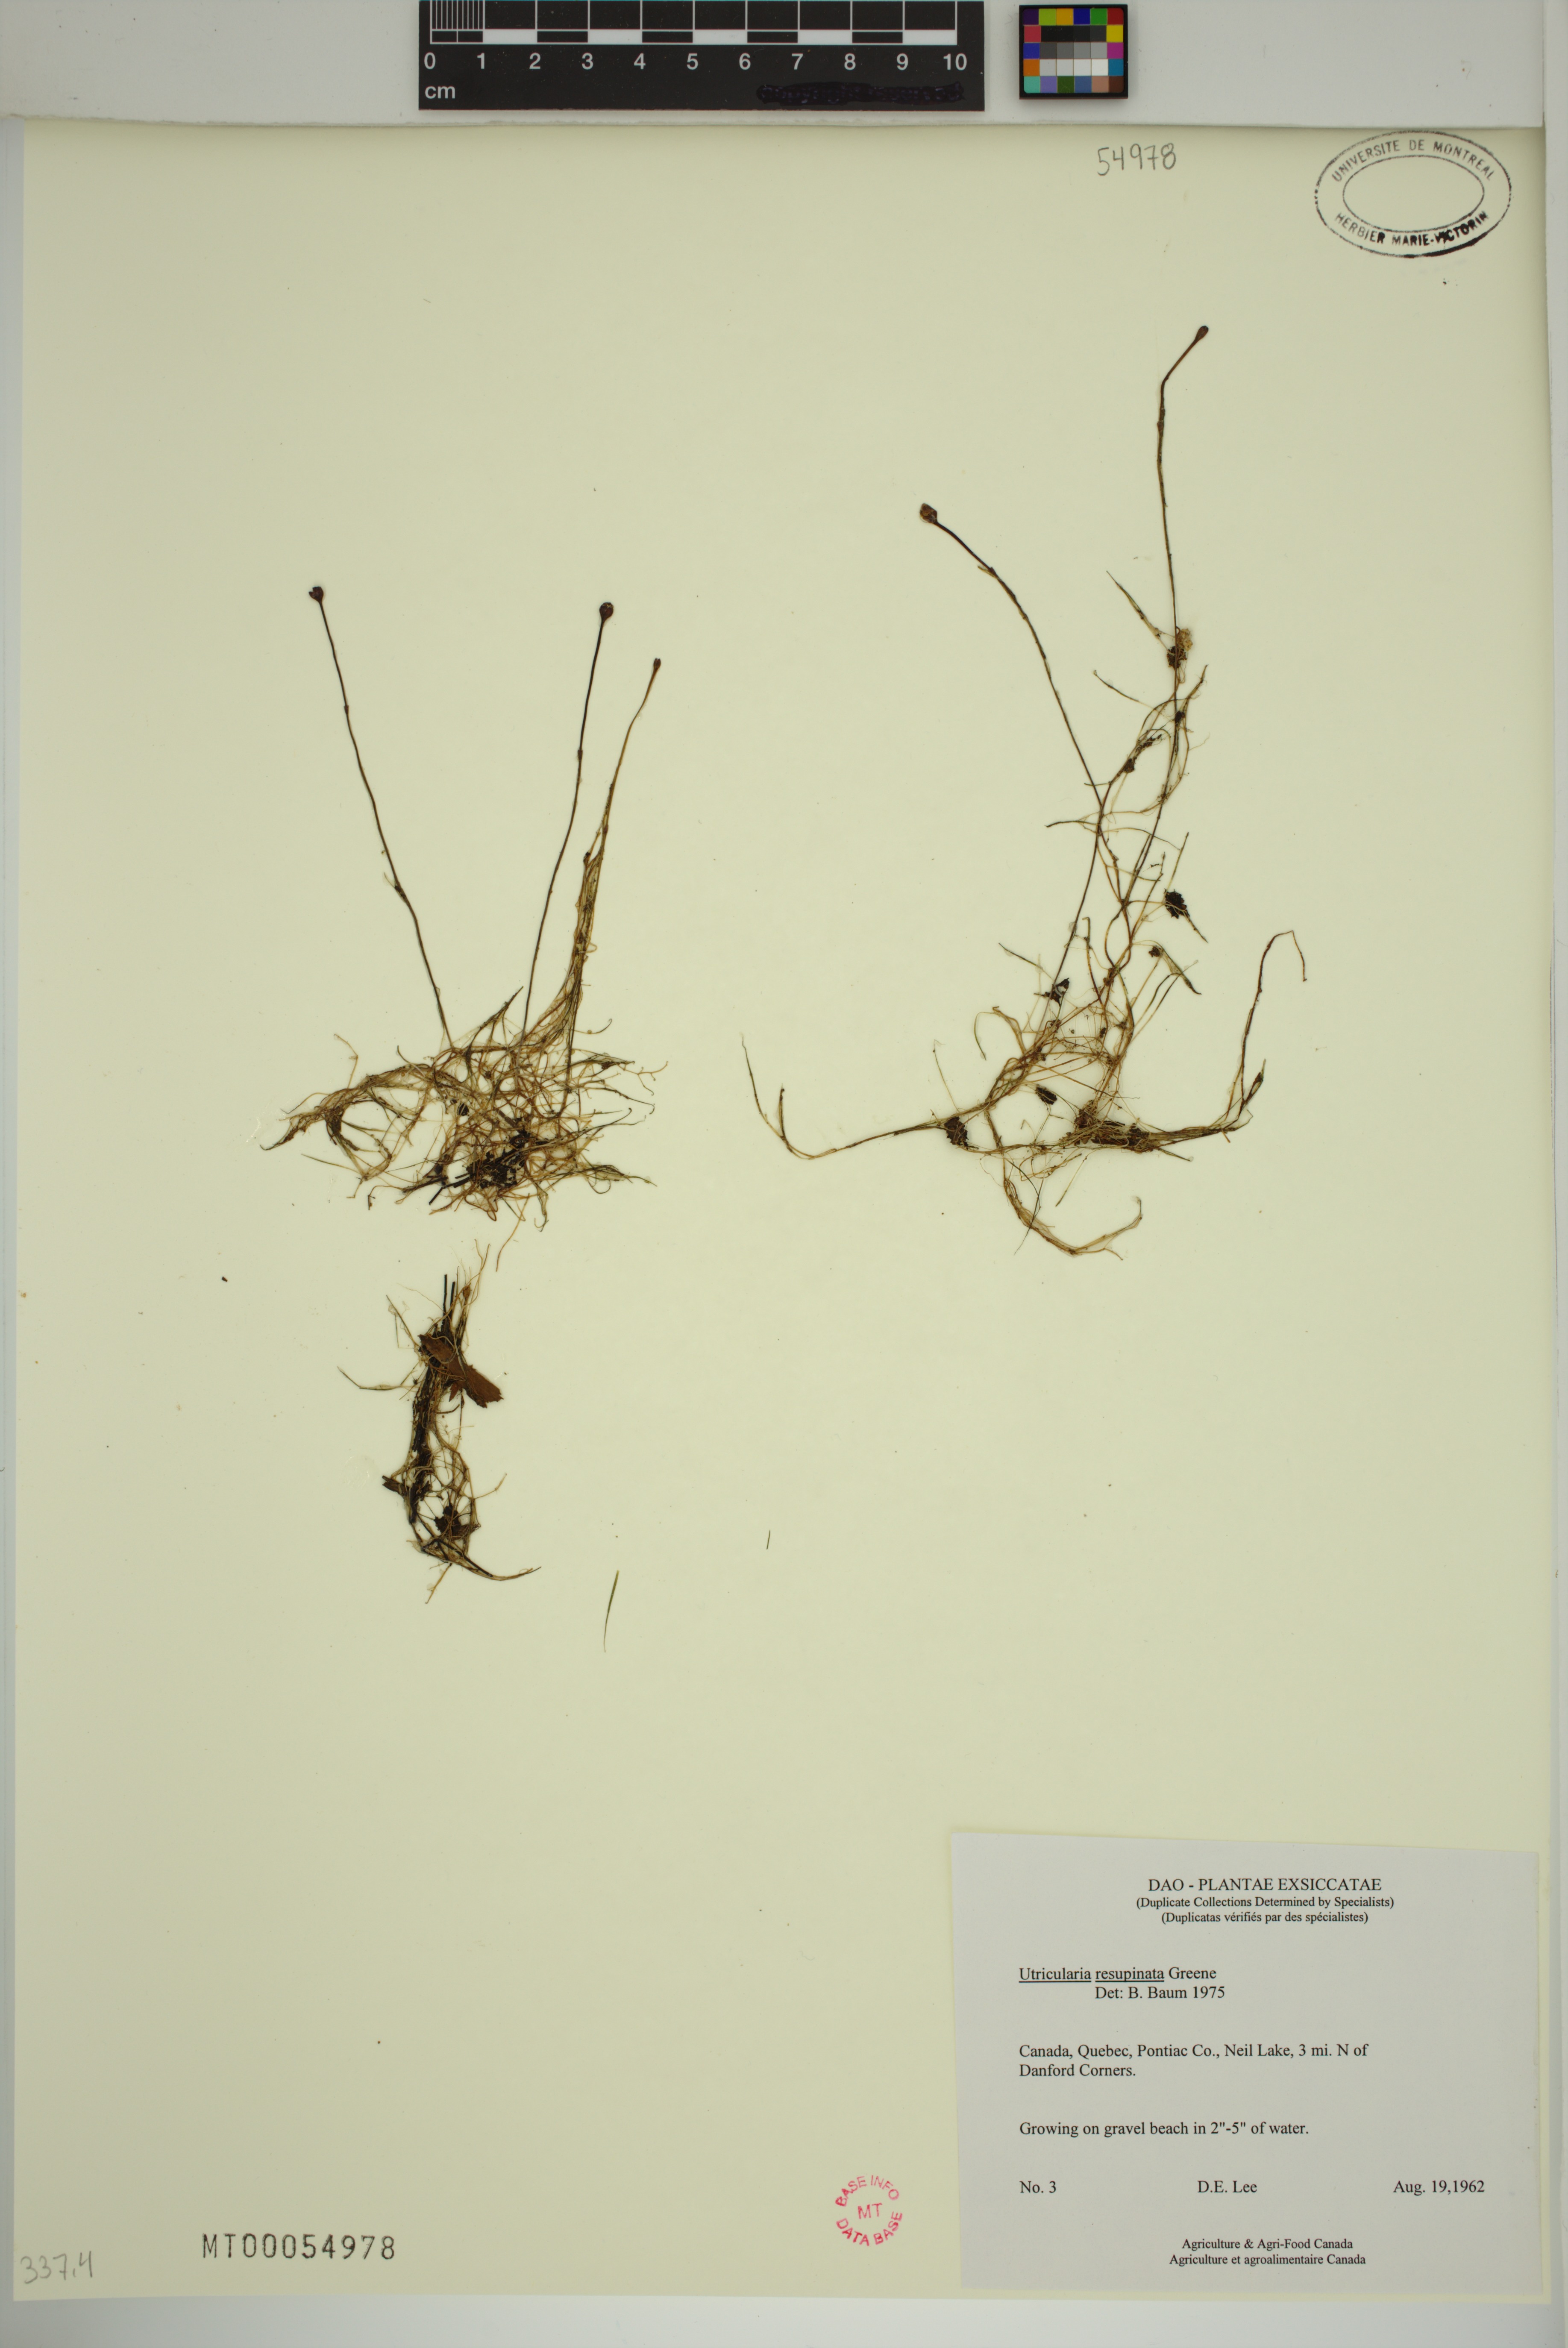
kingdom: Plantae
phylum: Tracheophyta
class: Magnoliopsida
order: Lamiales
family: Lentibulariaceae
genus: Utricularia
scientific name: Utricularia resupinata
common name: Northeastern bladderwort
